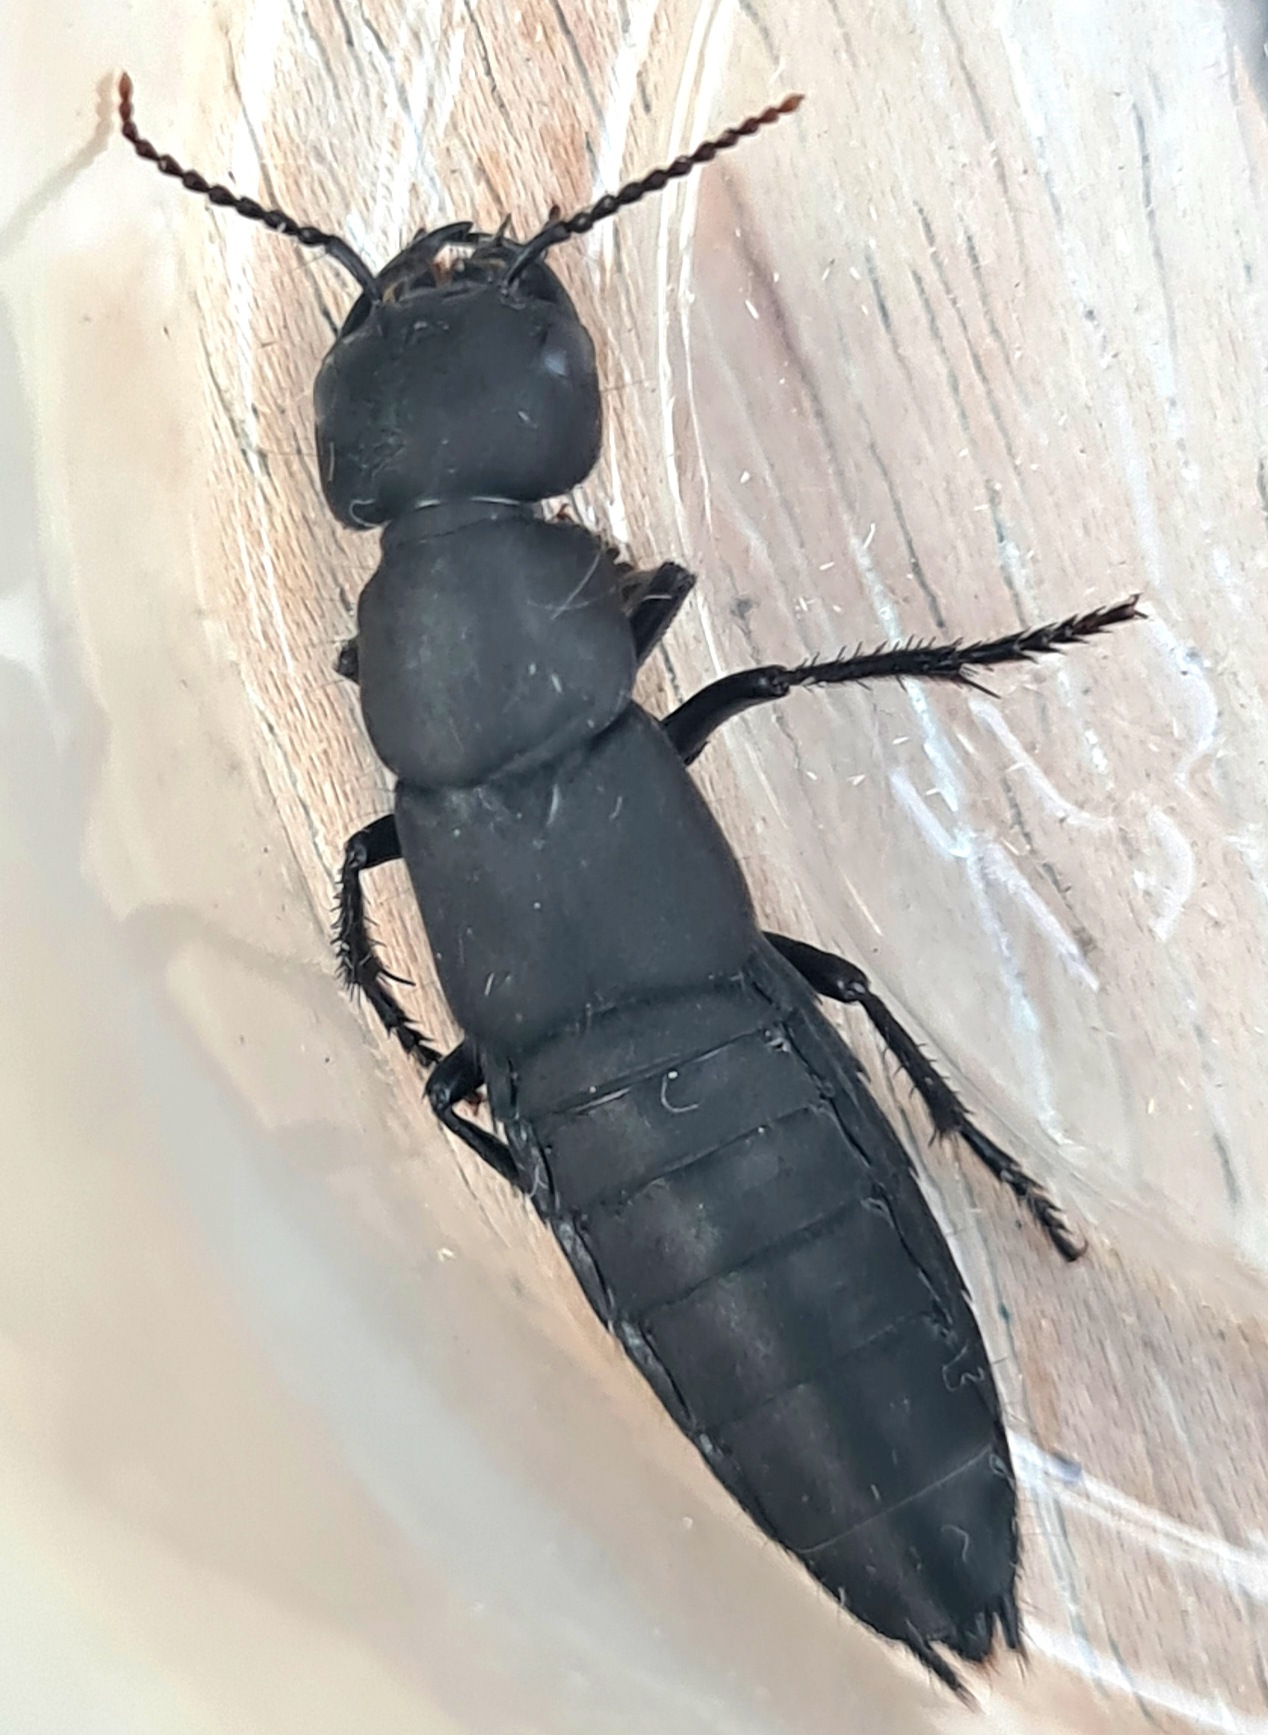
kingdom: Animalia
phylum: Arthropoda
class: Insecta
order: Coleoptera
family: Staphylinidae
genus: Ocypus
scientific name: Ocypus olens
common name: Stor rovbille
